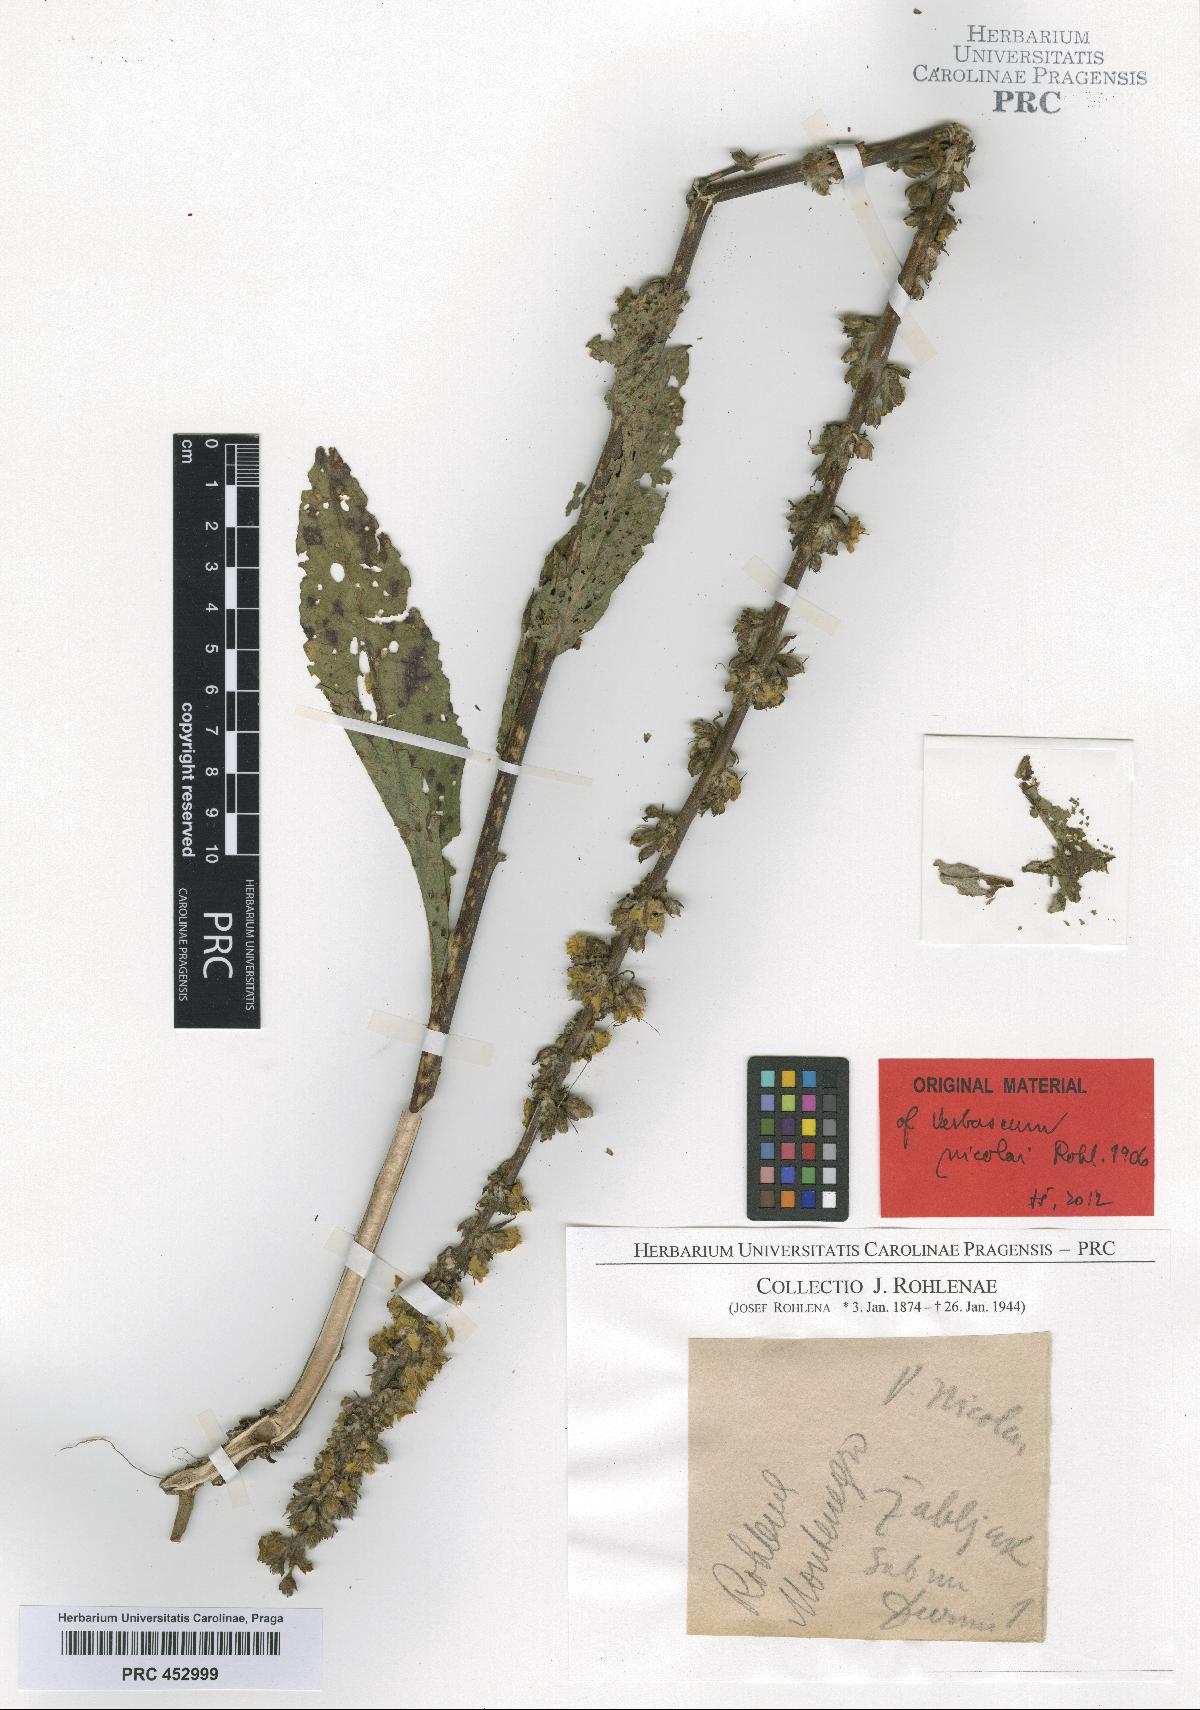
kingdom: Plantae
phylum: Tracheophyta
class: Magnoliopsida
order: Lamiales
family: Scrophulariaceae
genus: Verbascum
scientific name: Verbascum nicolai
